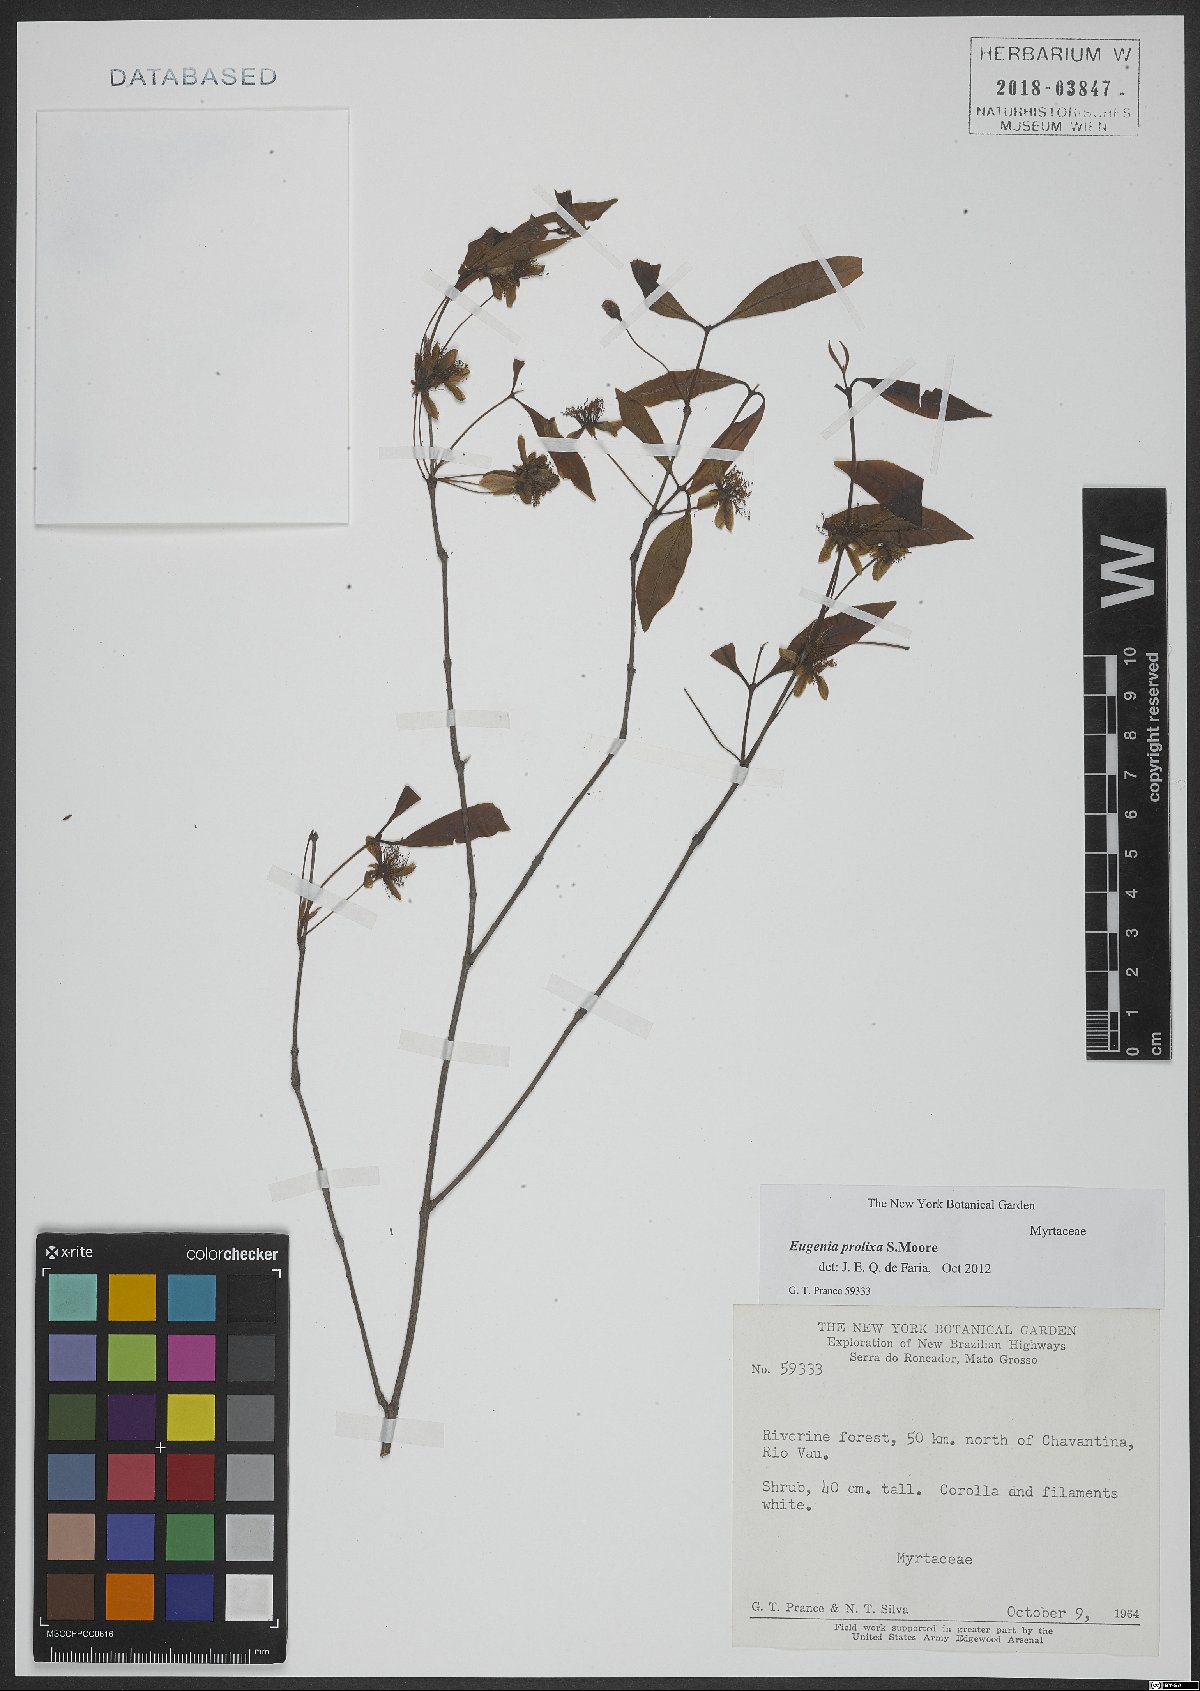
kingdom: Plantae
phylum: Tracheophyta
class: Magnoliopsida
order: Myrtales
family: Myrtaceae
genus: Eugenia
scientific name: Eugenia prolixa
